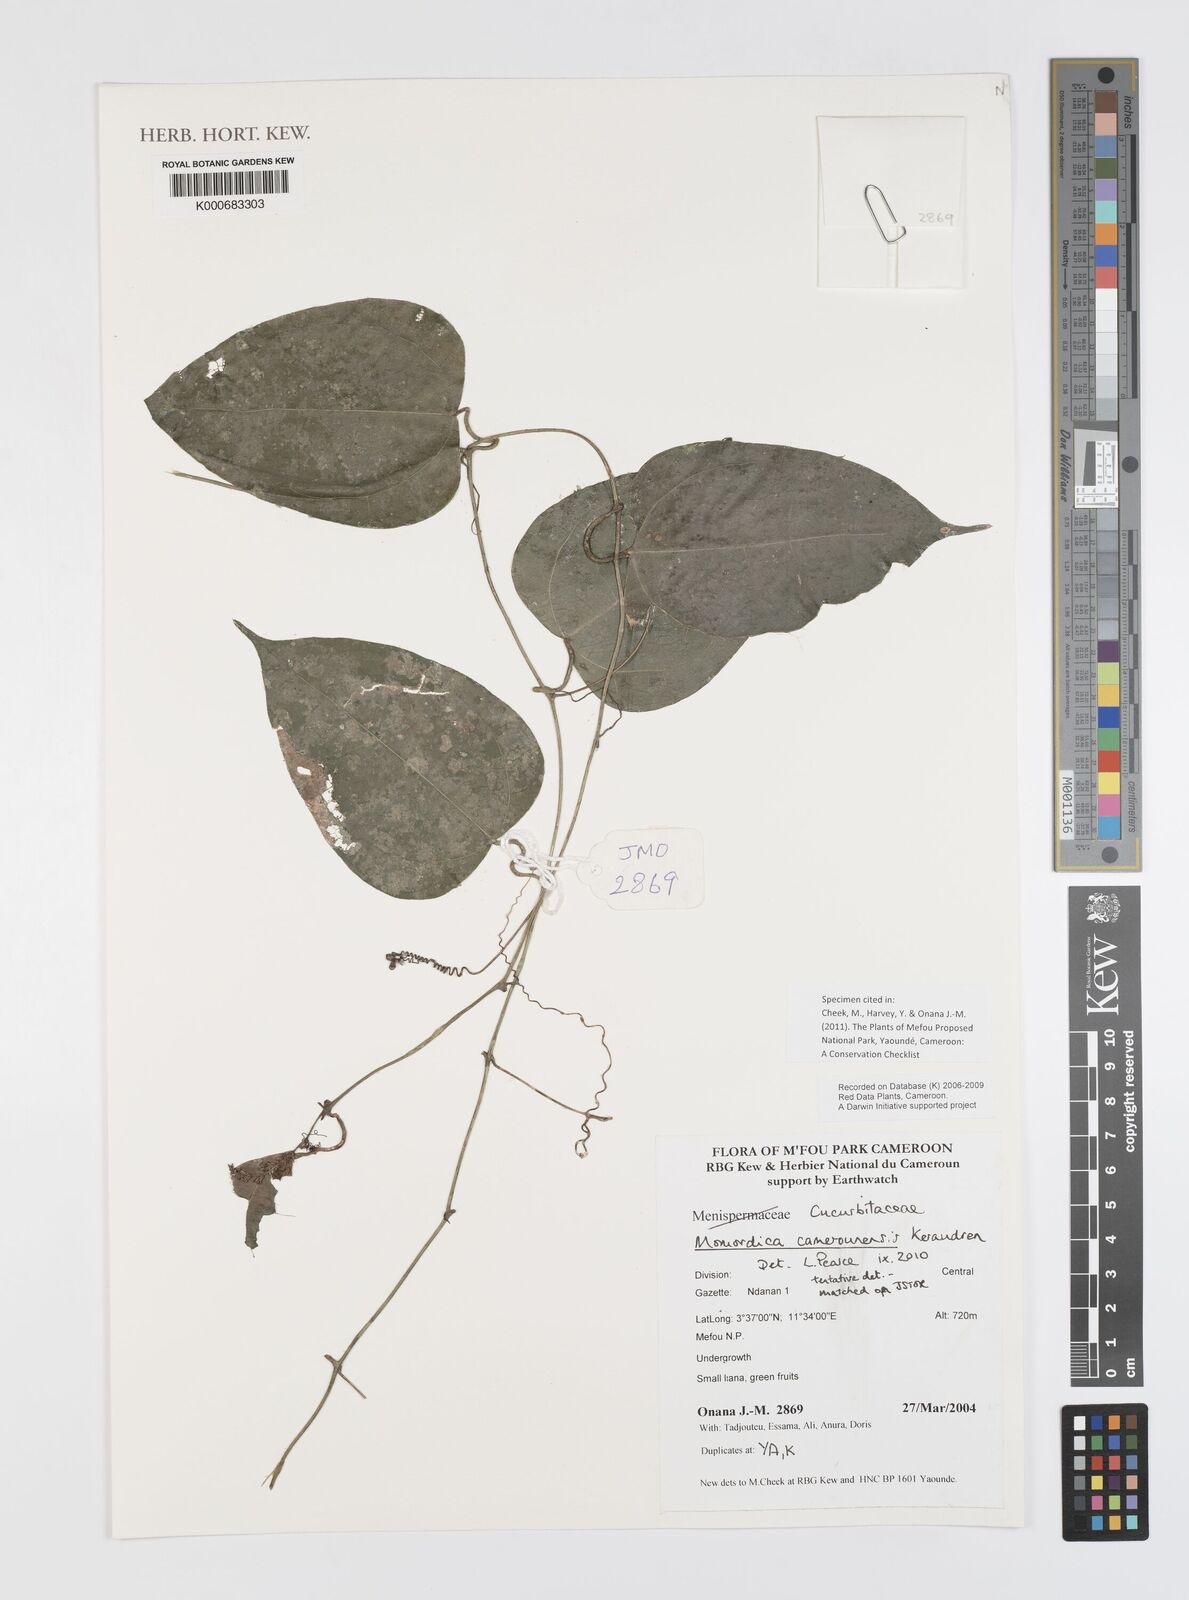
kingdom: Plantae
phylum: Tracheophyta
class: Magnoliopsida
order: Cucurbitales
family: Cucurbitaceae
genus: Momordica
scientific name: Momordica camerounensis
